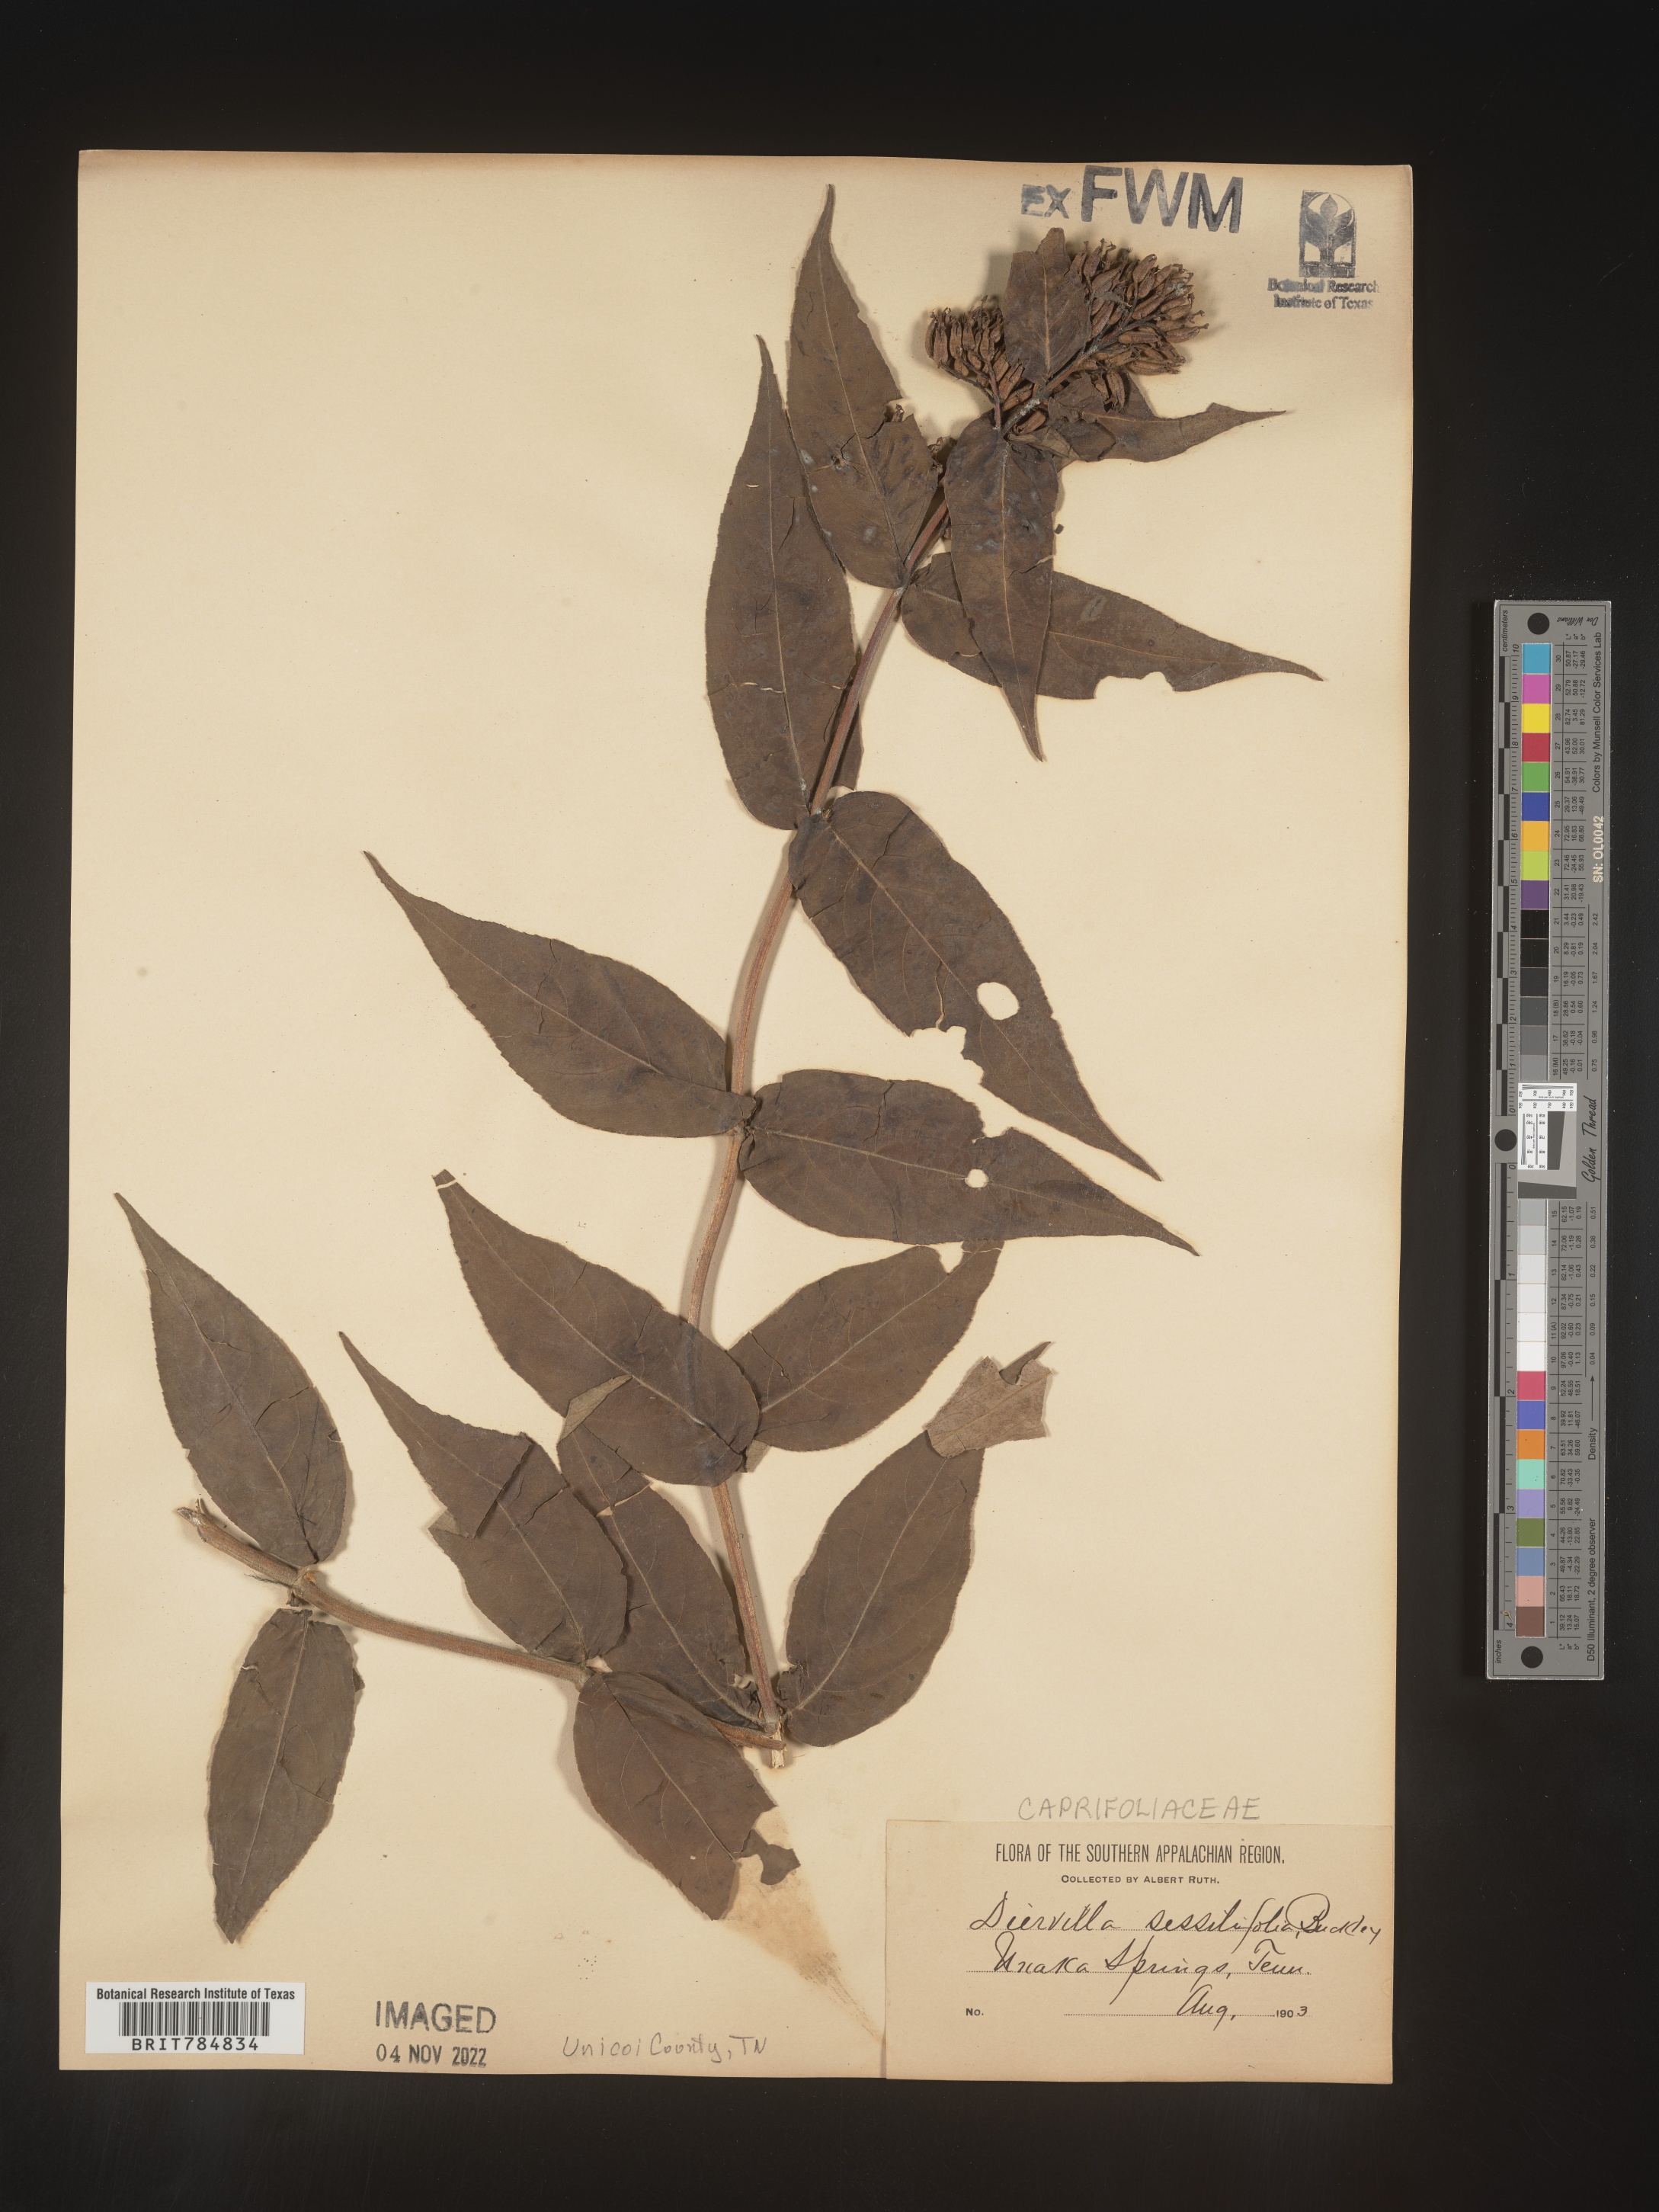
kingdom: Plantae
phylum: Tracheophyta
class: Magnoliopsida
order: Dipsacales
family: Caprifoliaceae
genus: Diervilla
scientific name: Diervilla
